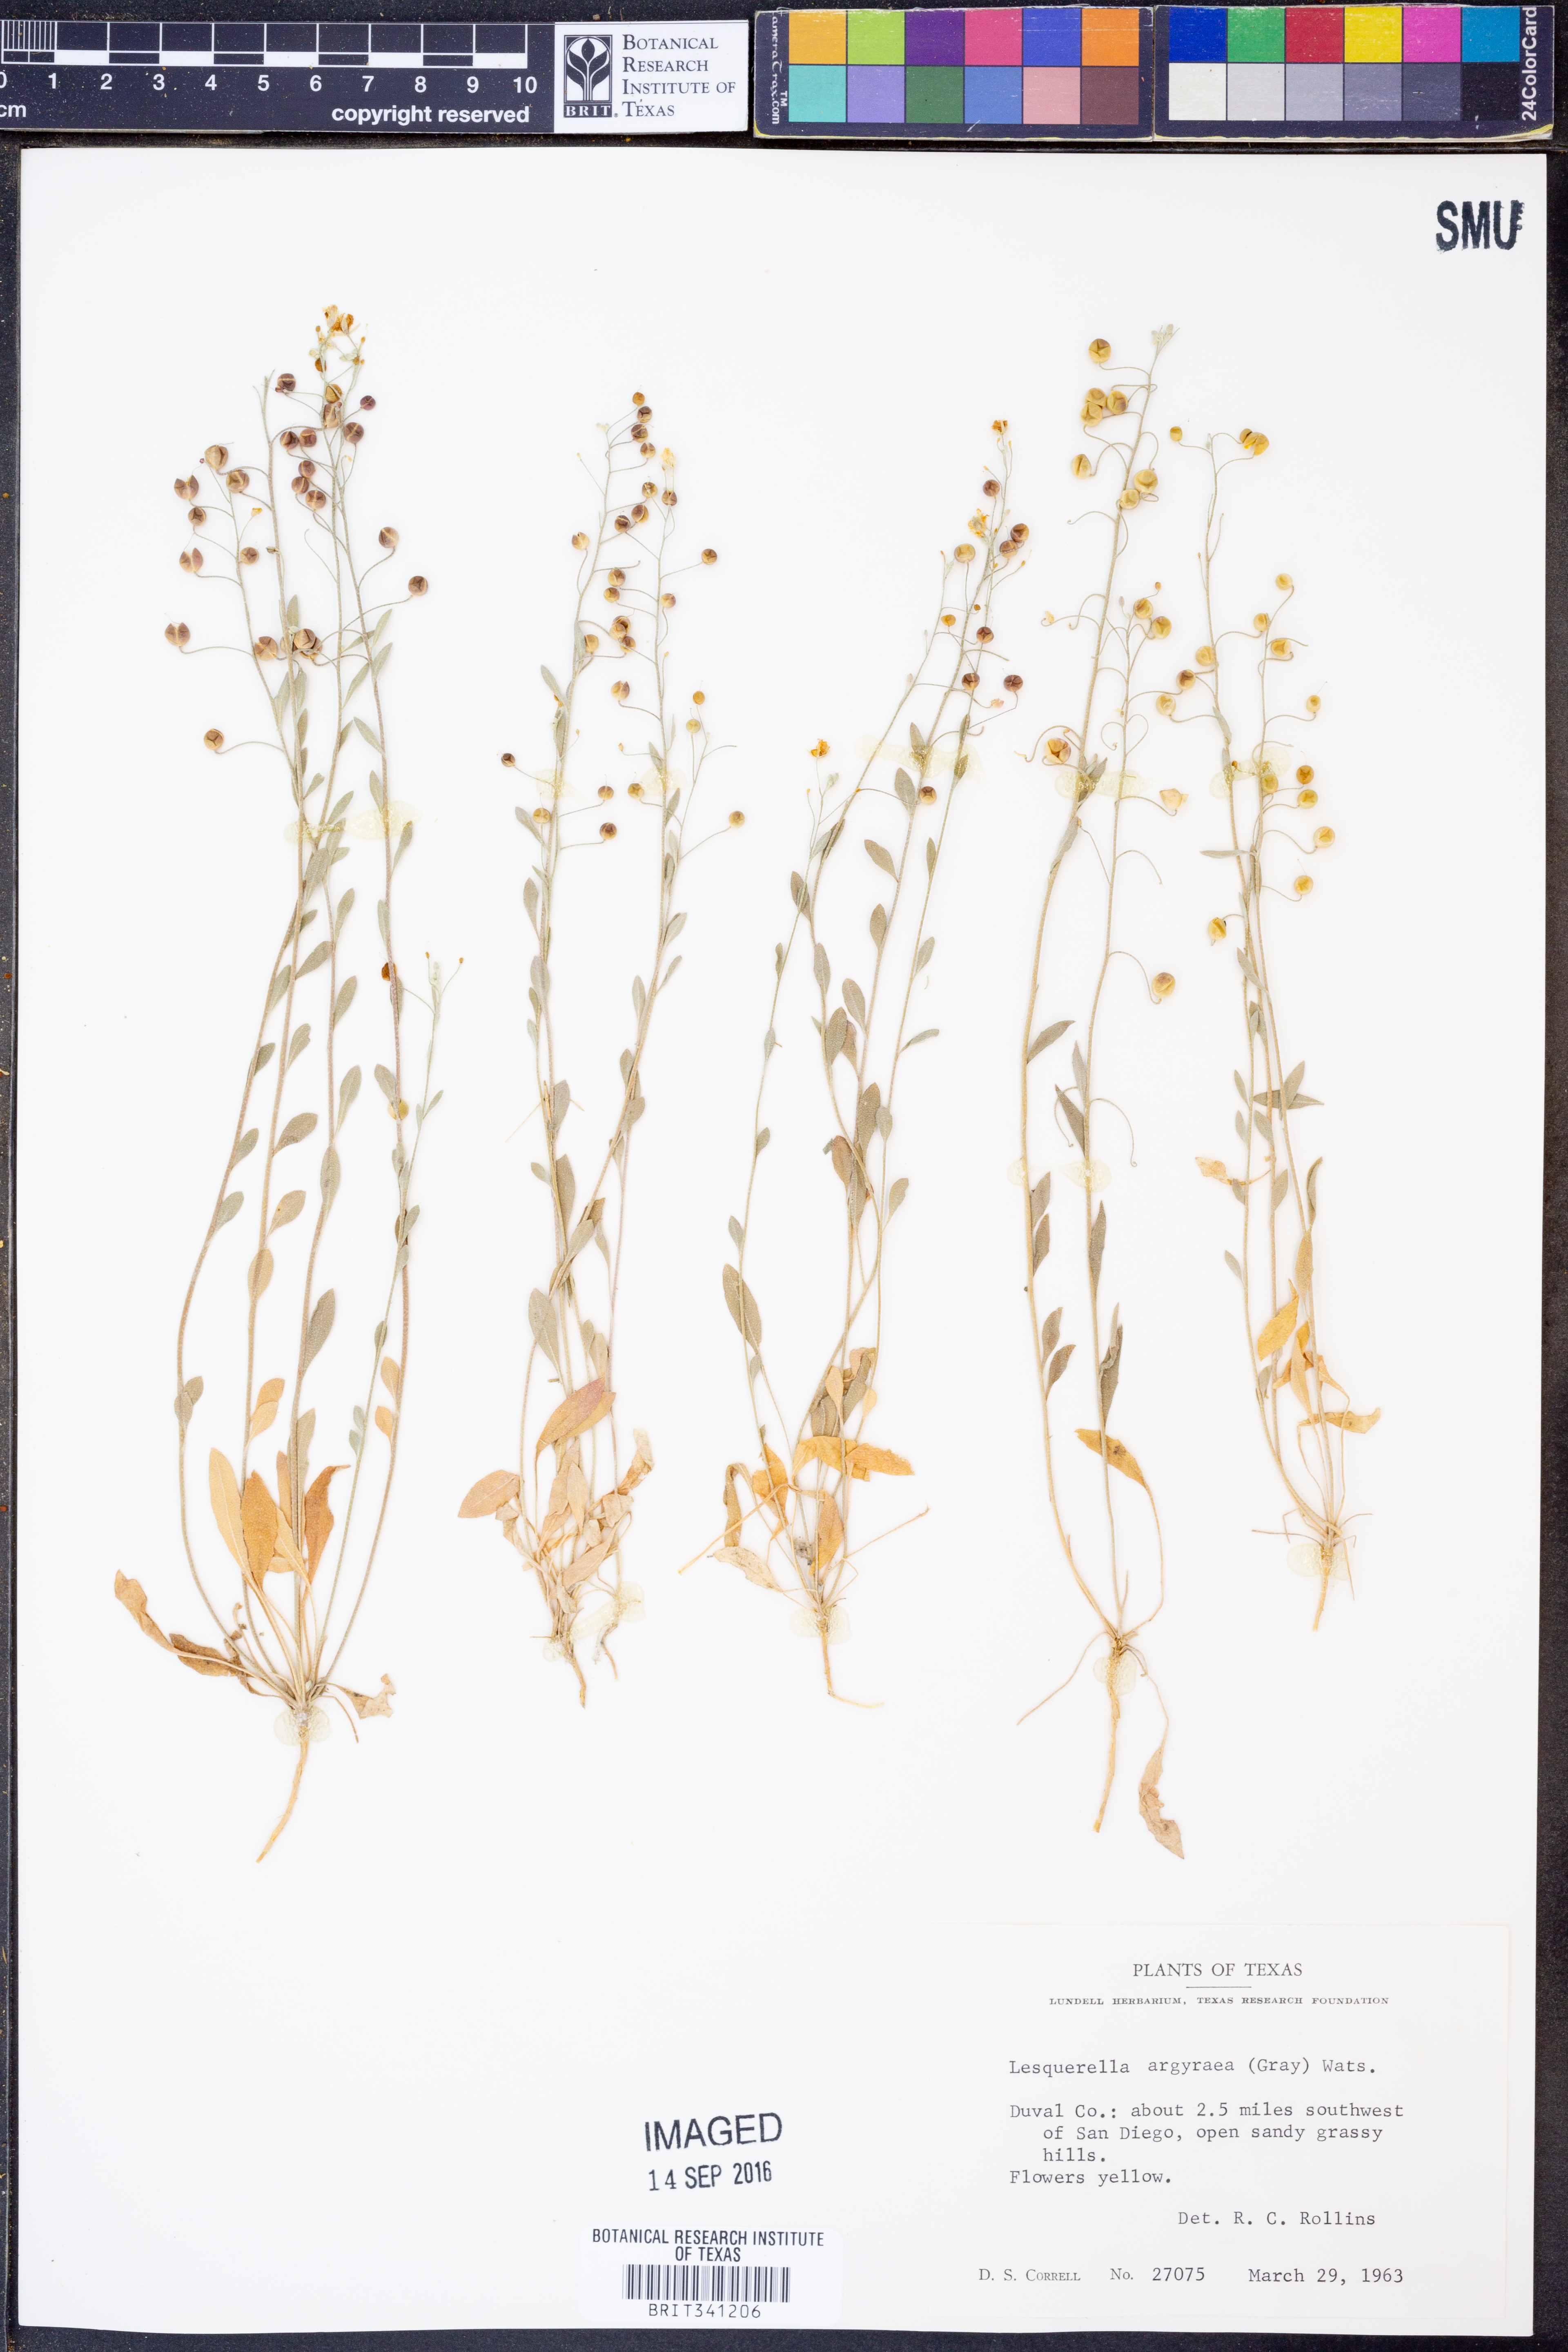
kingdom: Plantae
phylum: Tracheophyta
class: Magnoliopsida
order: Brassicales
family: Brassicaceae
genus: Physaria
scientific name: Physaria argyraea
